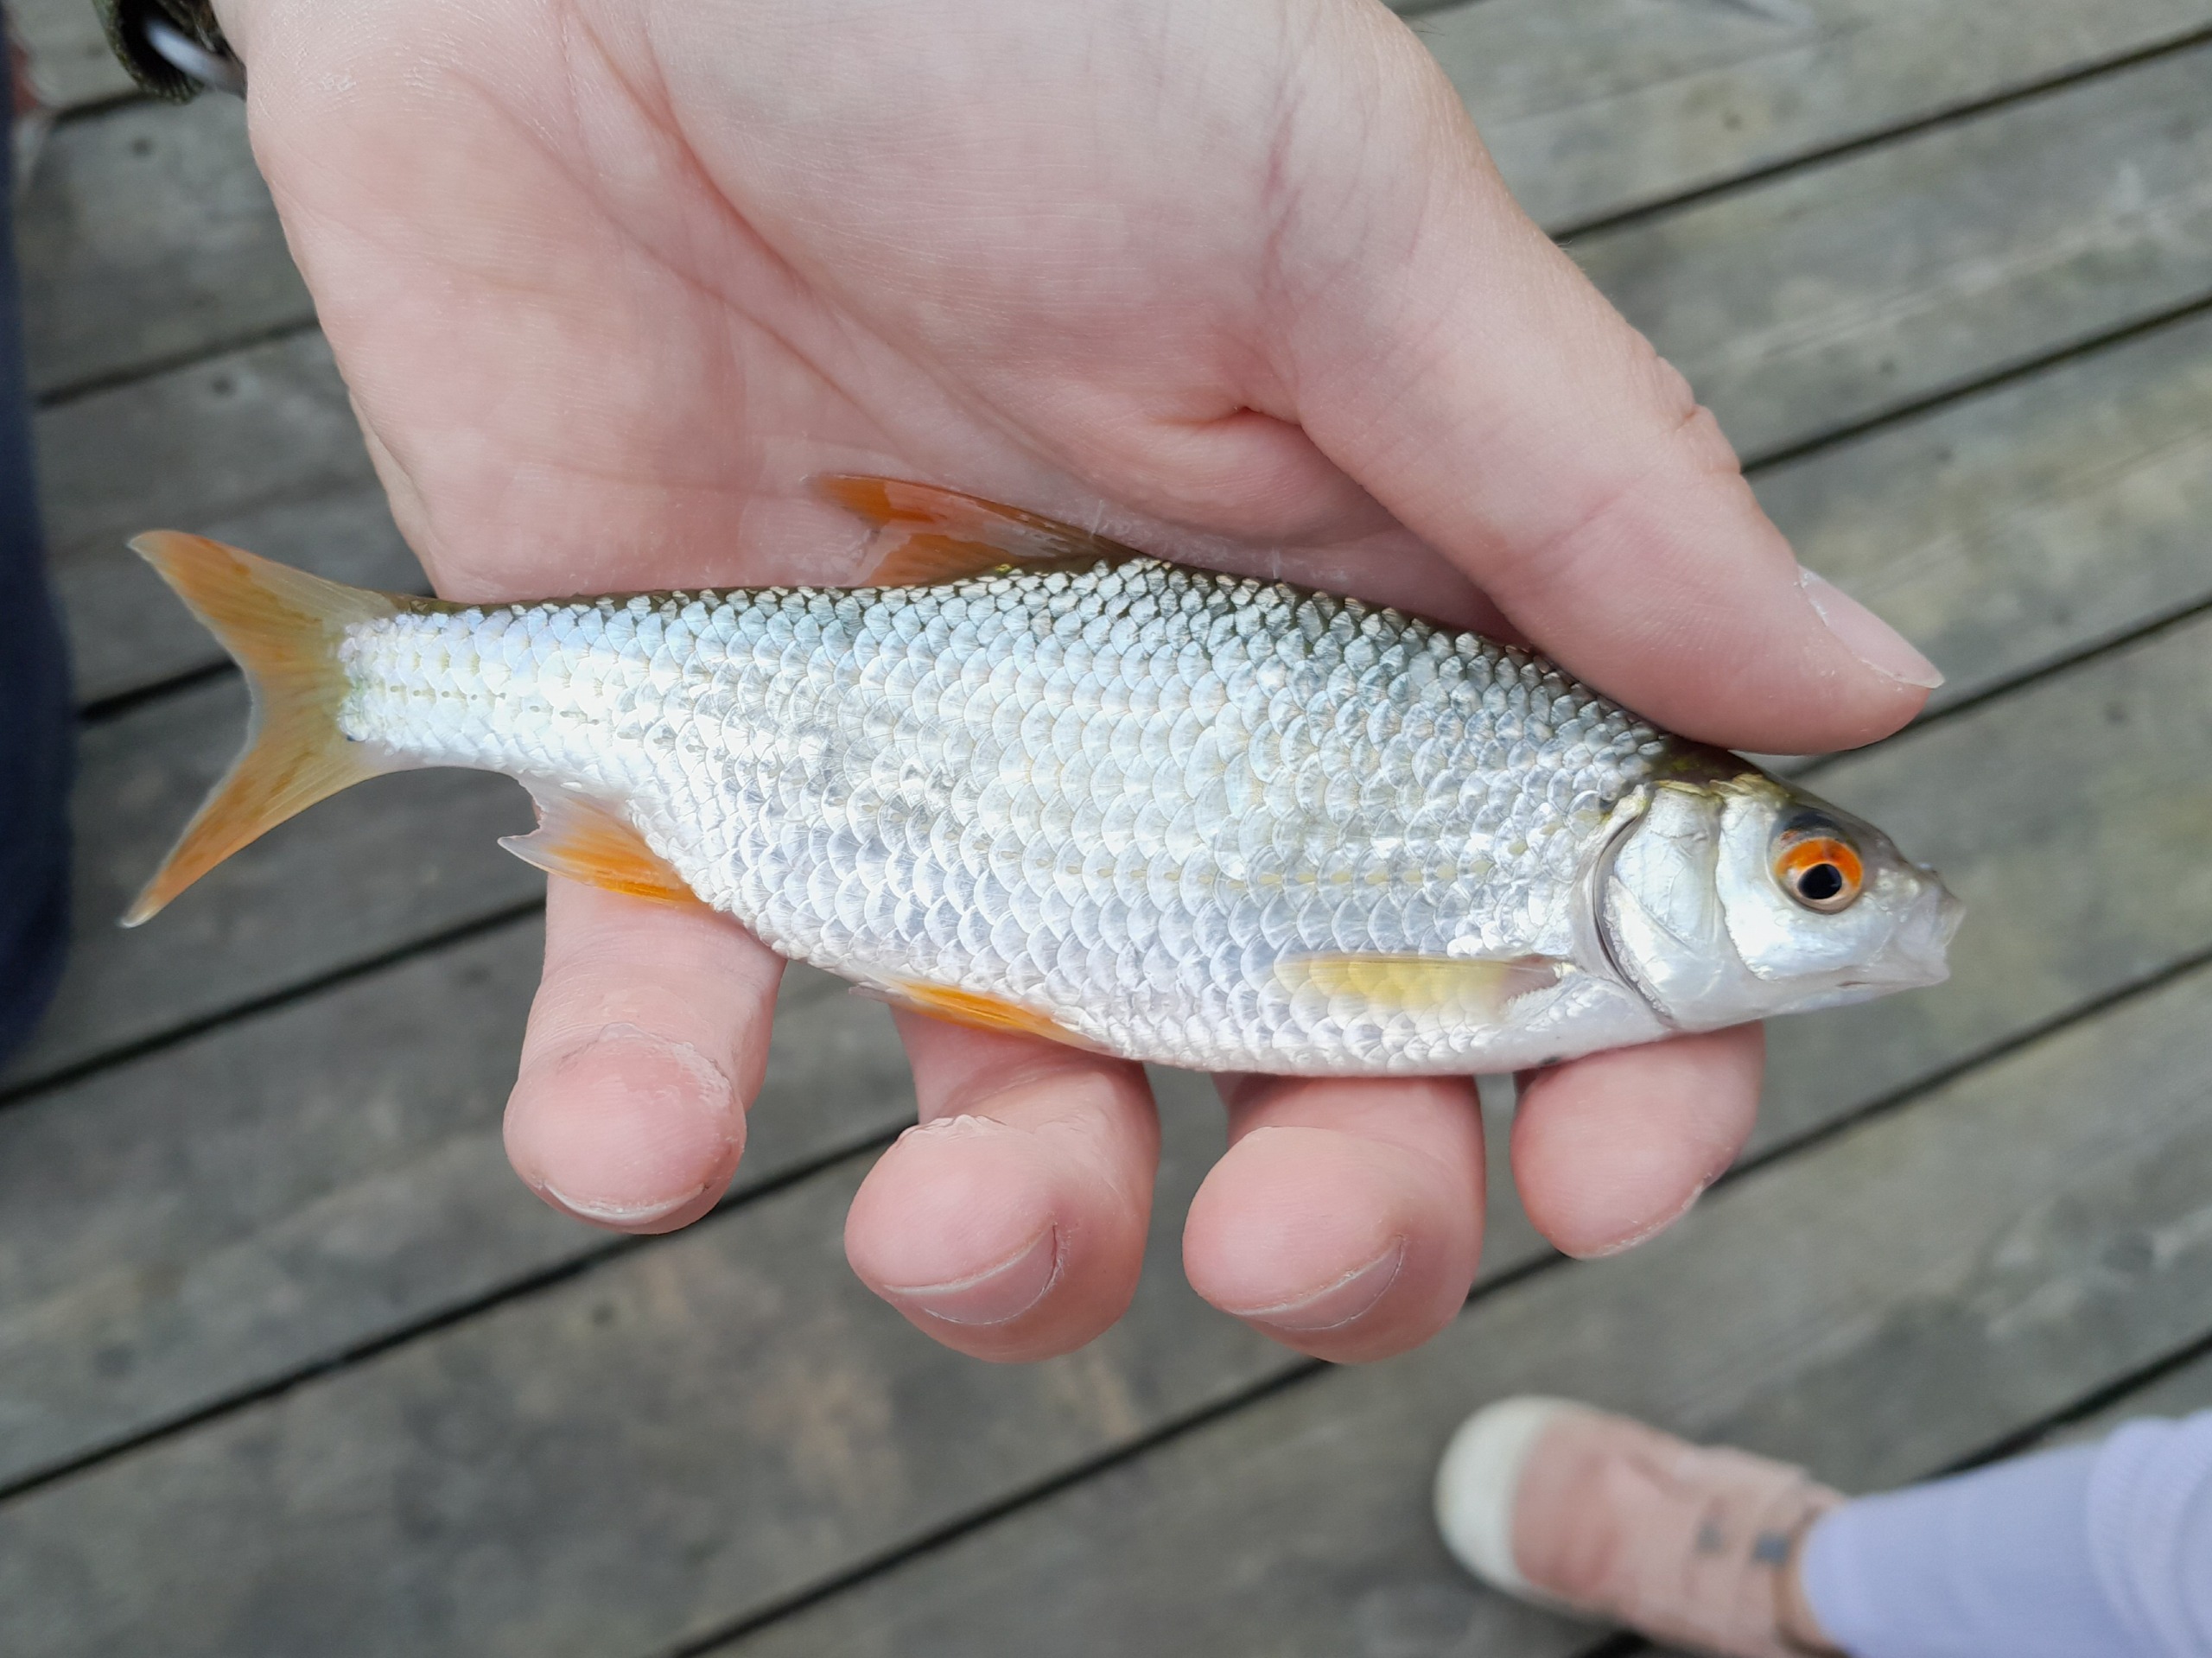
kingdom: Animalia
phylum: Chordata
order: Cypriniformes
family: Cyprinidae
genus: Rutilus
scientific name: Rutilus rutilus
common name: Skalle
